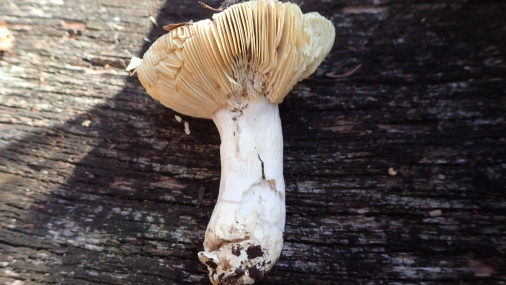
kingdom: Fungi
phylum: Basidiomycota
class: Agaricomycetes
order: Russulales
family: Russulaceae
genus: Russula
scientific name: Russula veternosa
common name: blødkødet skørhat
